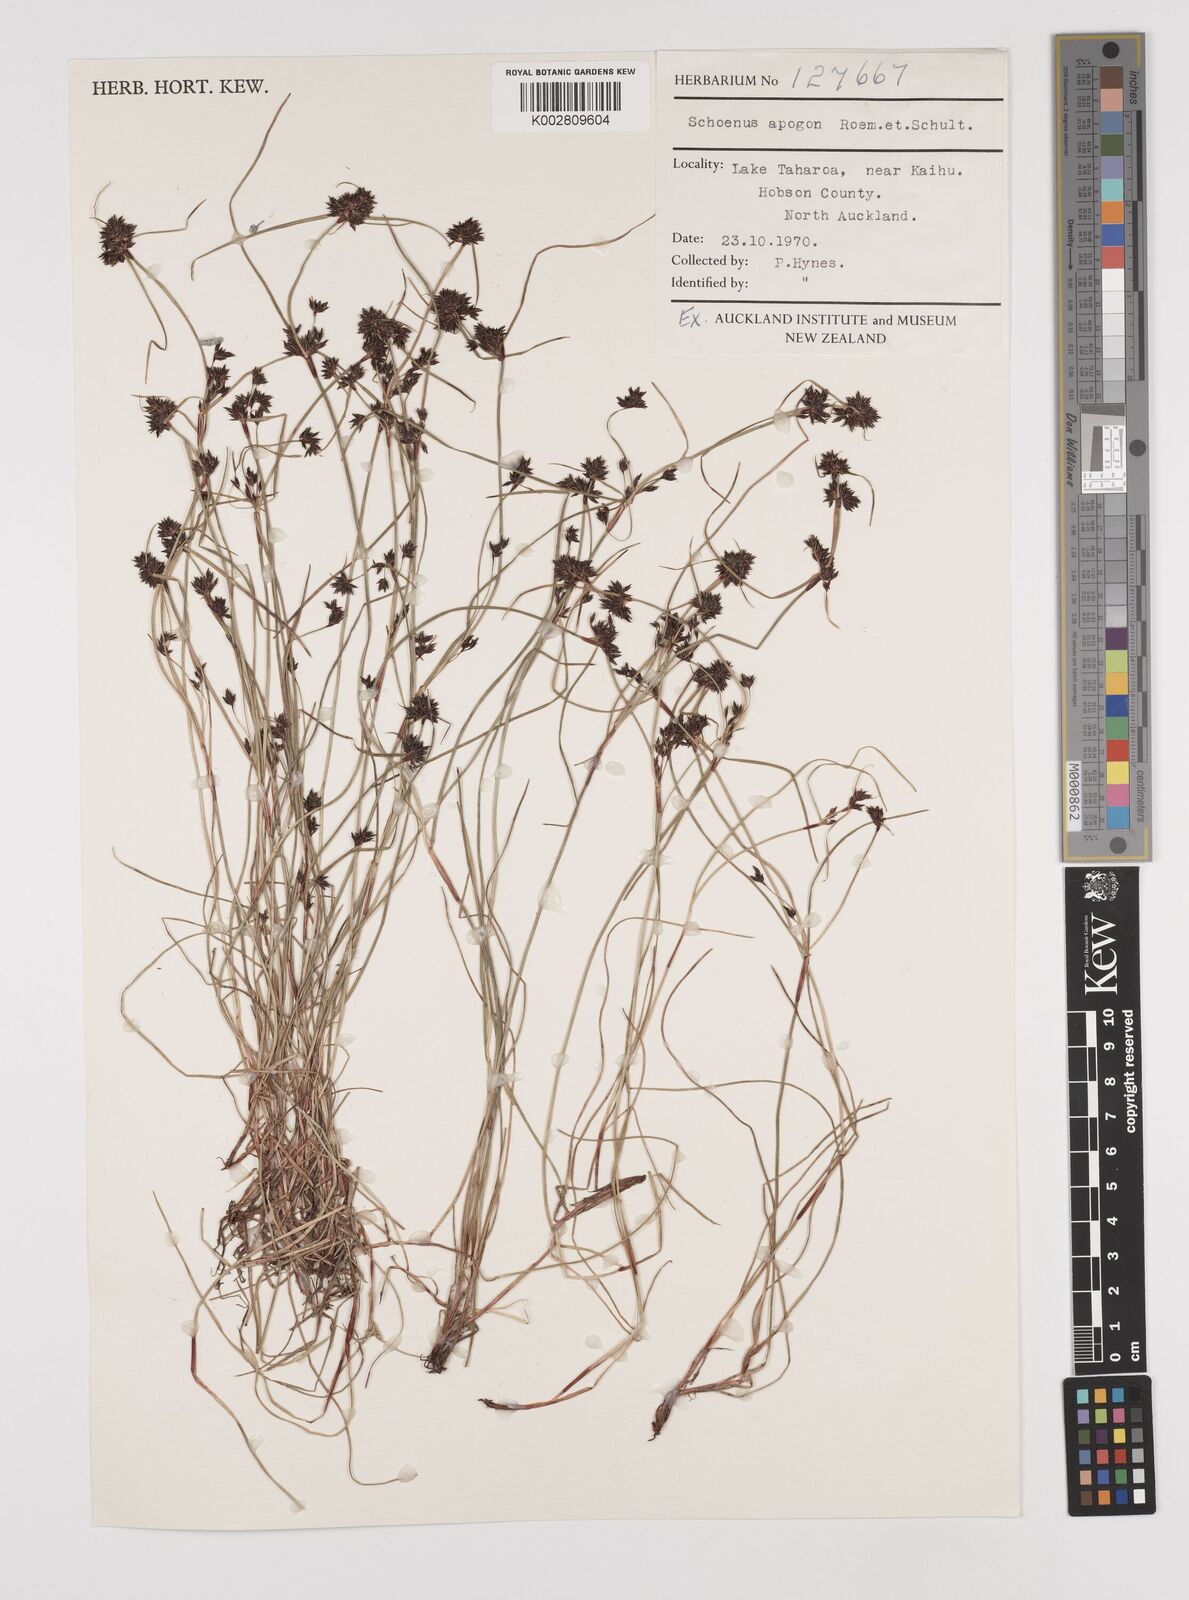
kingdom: Plantae
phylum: Tracheophyta
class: Liliopsida
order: Poales
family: Cyperaceae
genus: Schoenus
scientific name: Schoenus apogon
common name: Smooth bogrush
